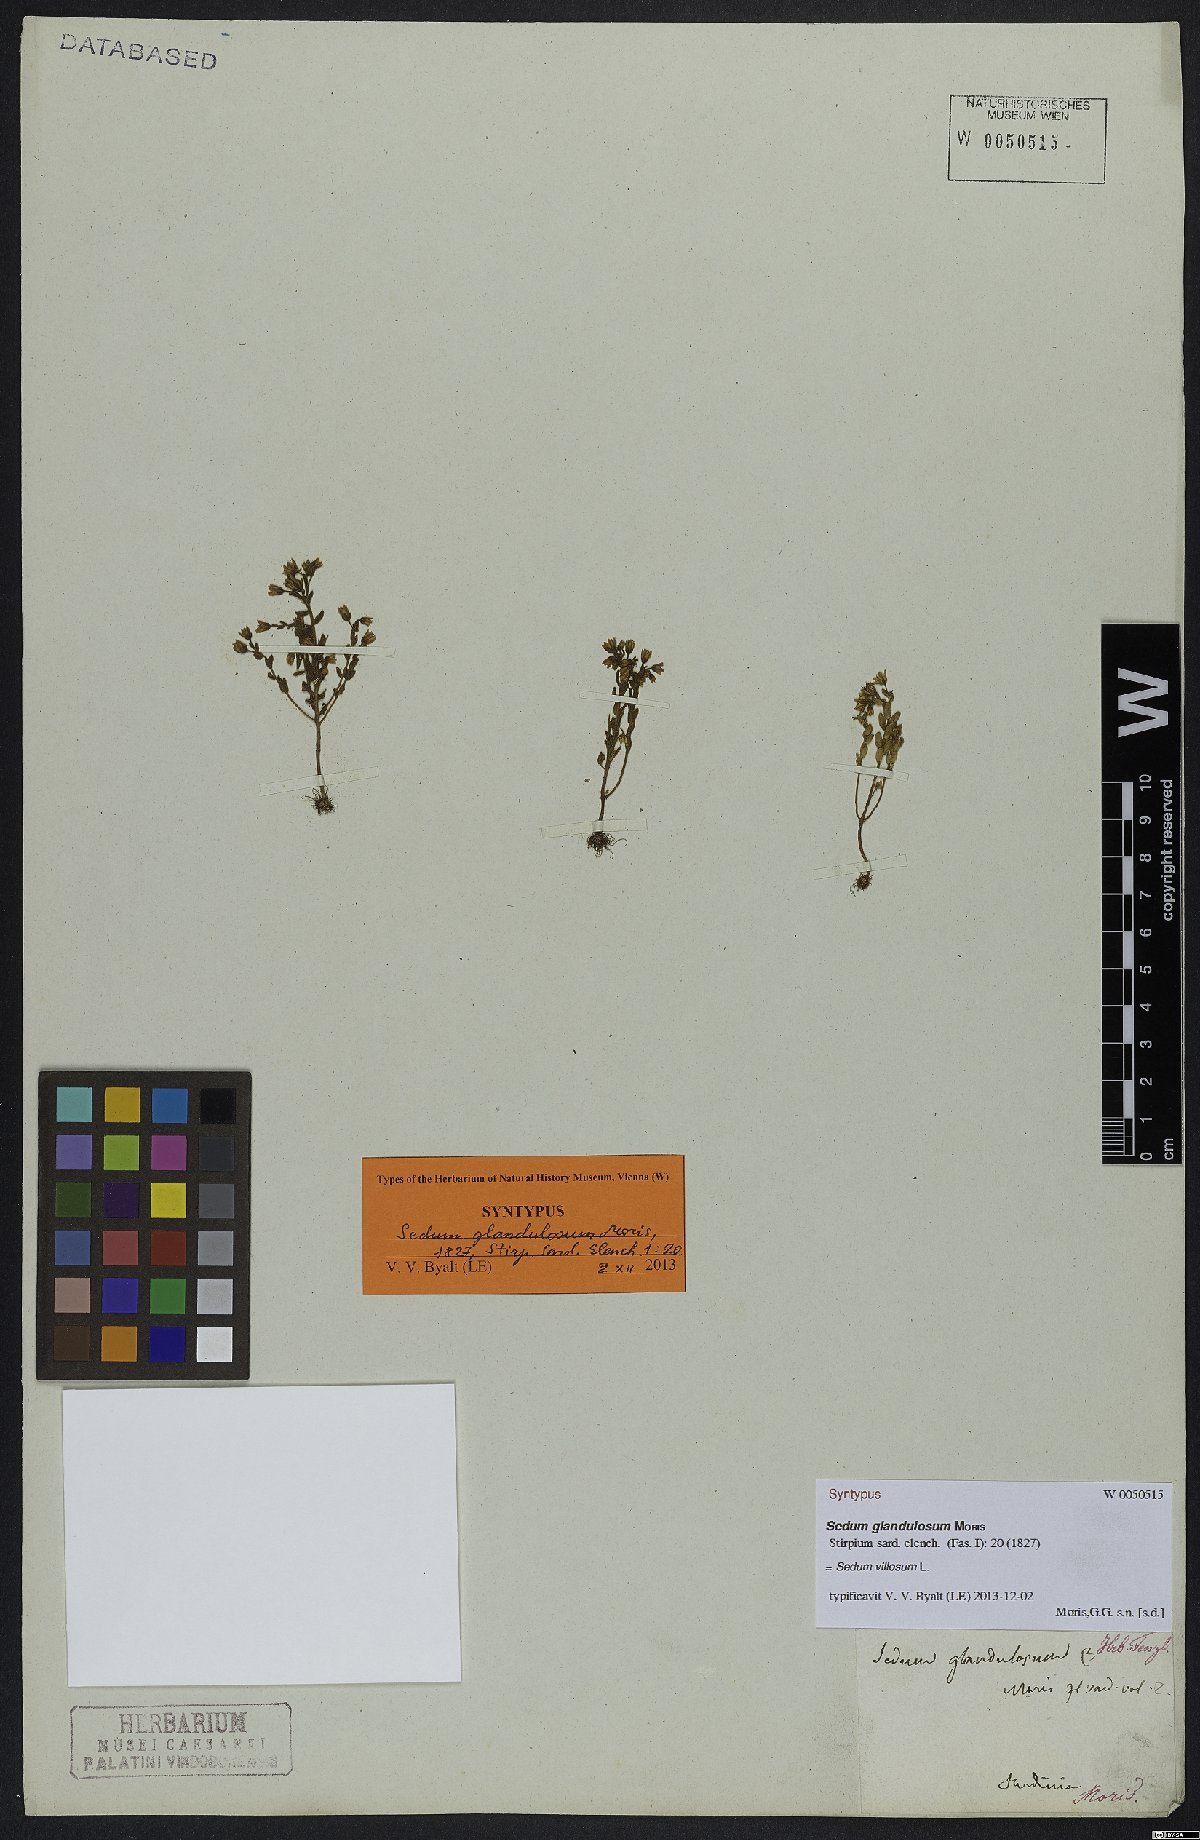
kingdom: Plantae
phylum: Tracheophyta
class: Magnoliopsida
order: Saxifragales
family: Crassulaceae
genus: Sedum
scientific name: Sedum villosum
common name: Hairy stonecrop
